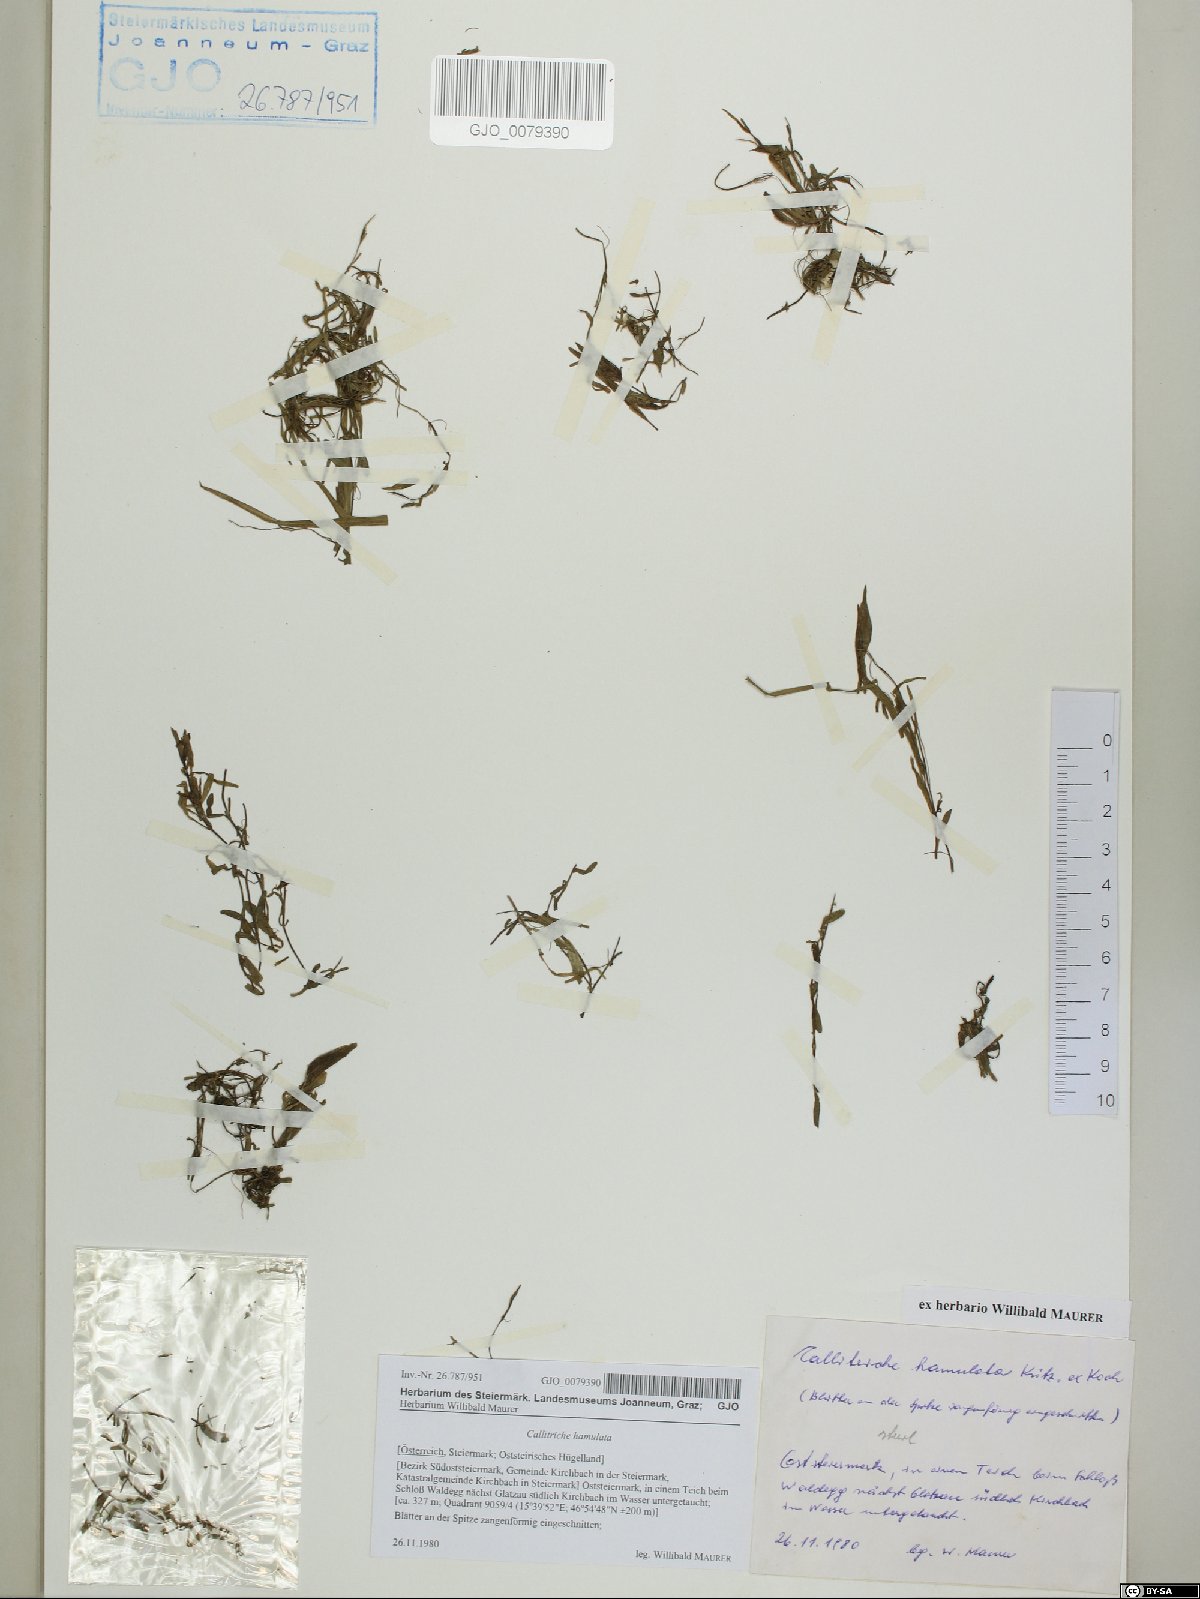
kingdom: Plantae
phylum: Tracheophyta
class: Magnoliopsida
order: Lamiales
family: Plantaginaceae
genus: Callitriche
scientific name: Callitriche hamulata
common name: Intermediate water-starwort
